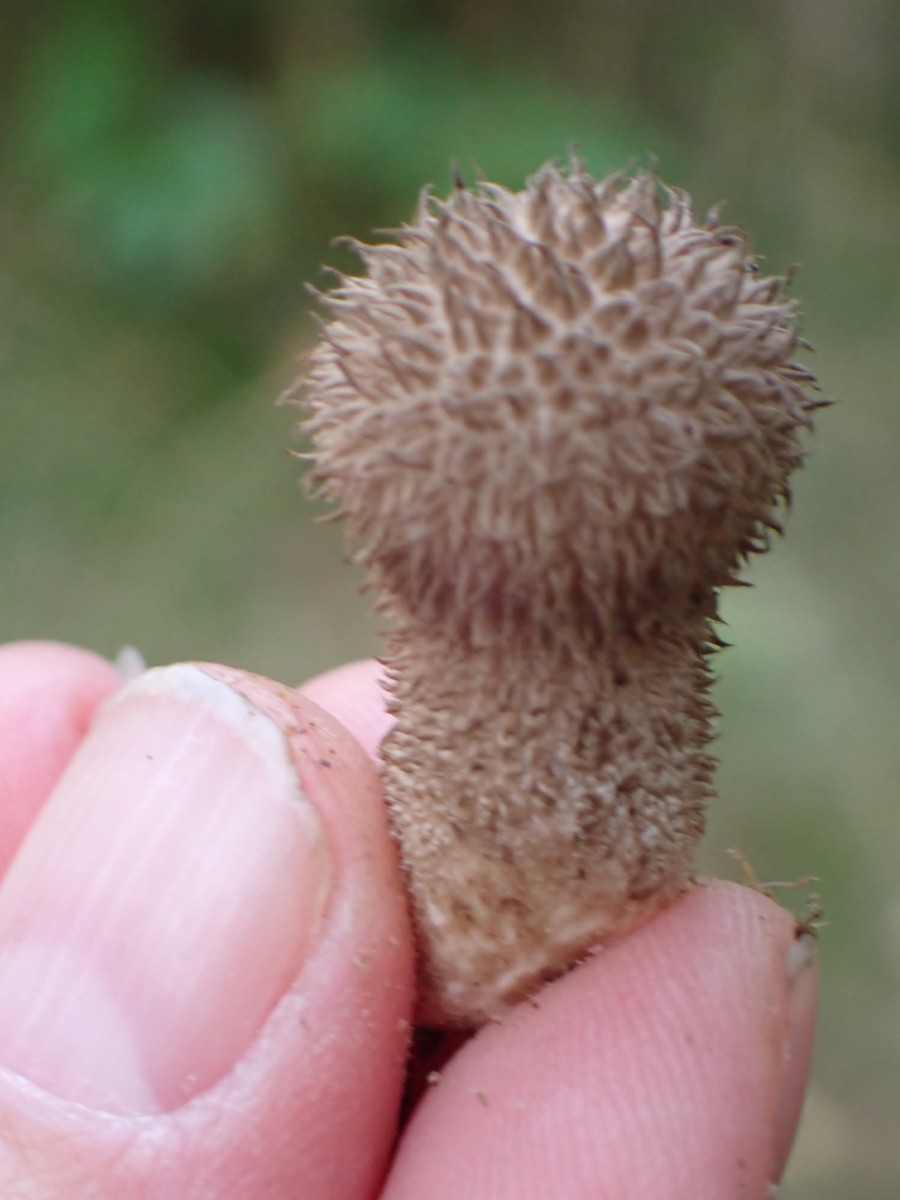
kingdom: Fungi
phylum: Basidiomycota
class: Agaricomycetes
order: Agaricales
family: Lycoperdaceae
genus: Lycoperdon
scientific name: Lycoperdon echinatum
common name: pindsvine-støvbold
